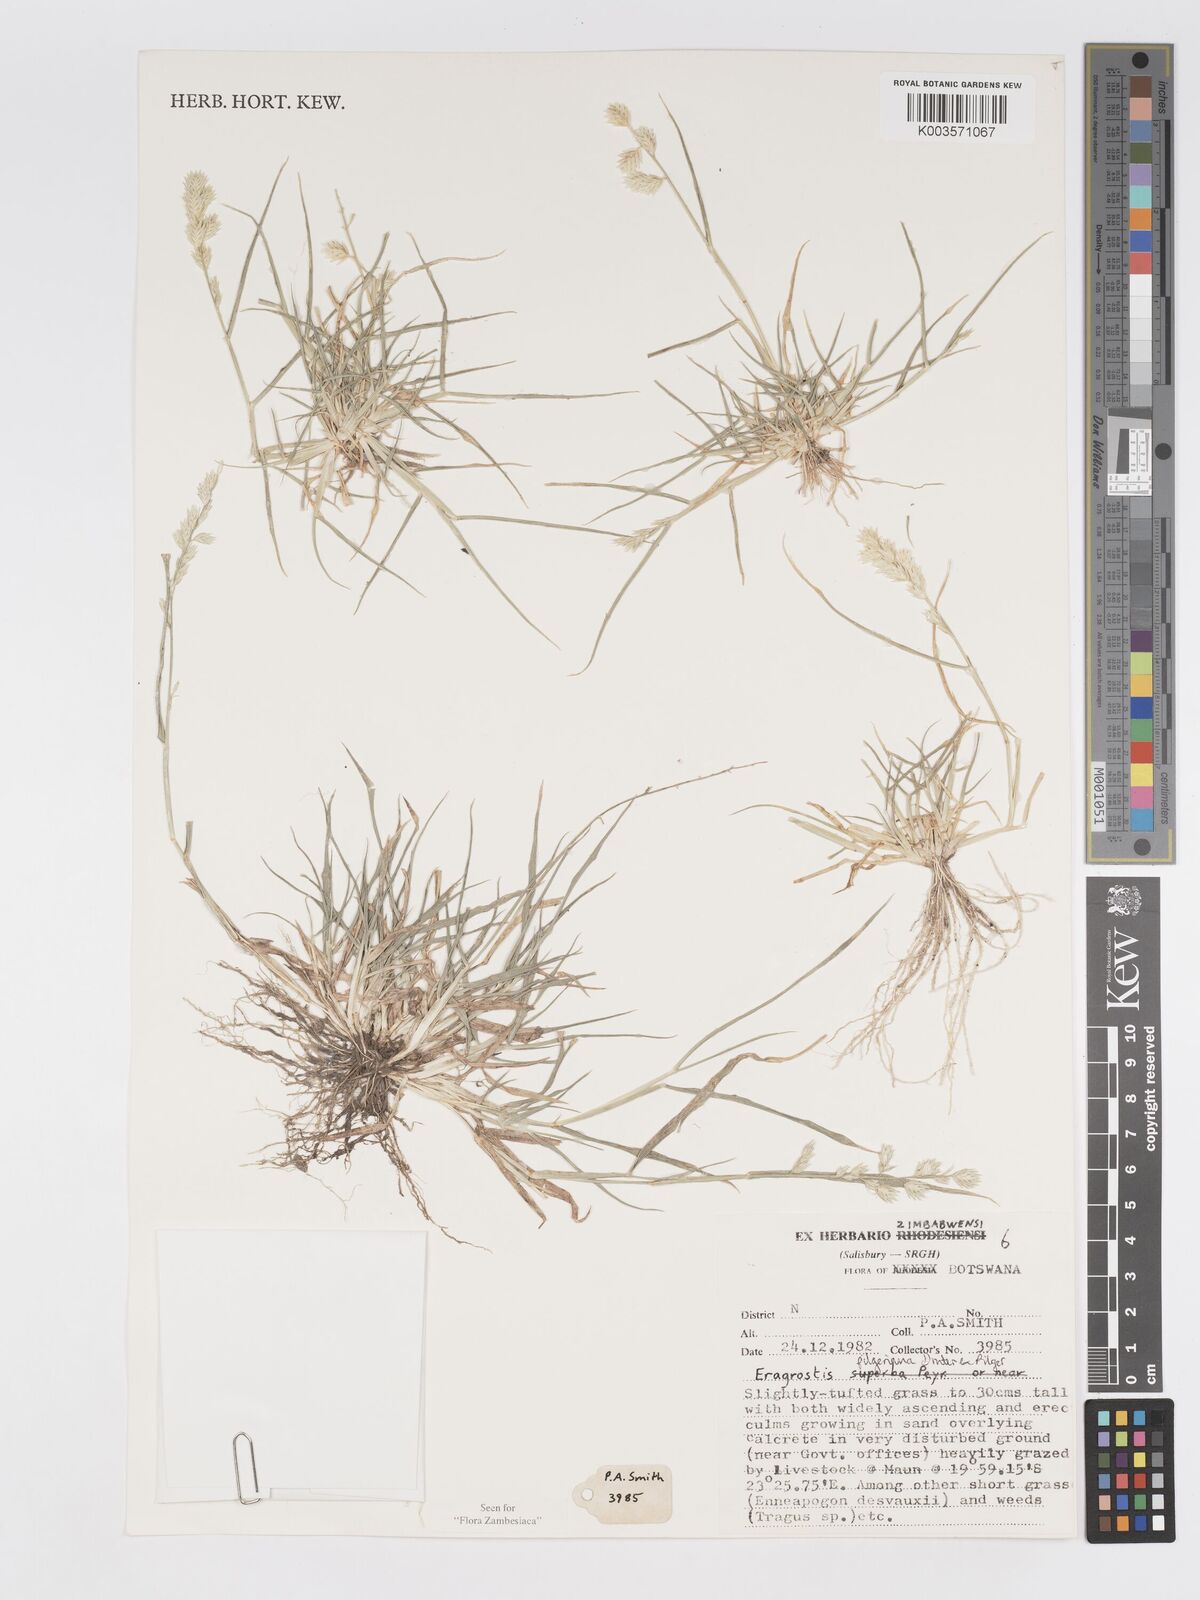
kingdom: Plantae
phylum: Tracheophyta
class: Liliopsida
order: Poales
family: Poaceae
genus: Eragrostis
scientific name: Eragrostis pilgeriana
